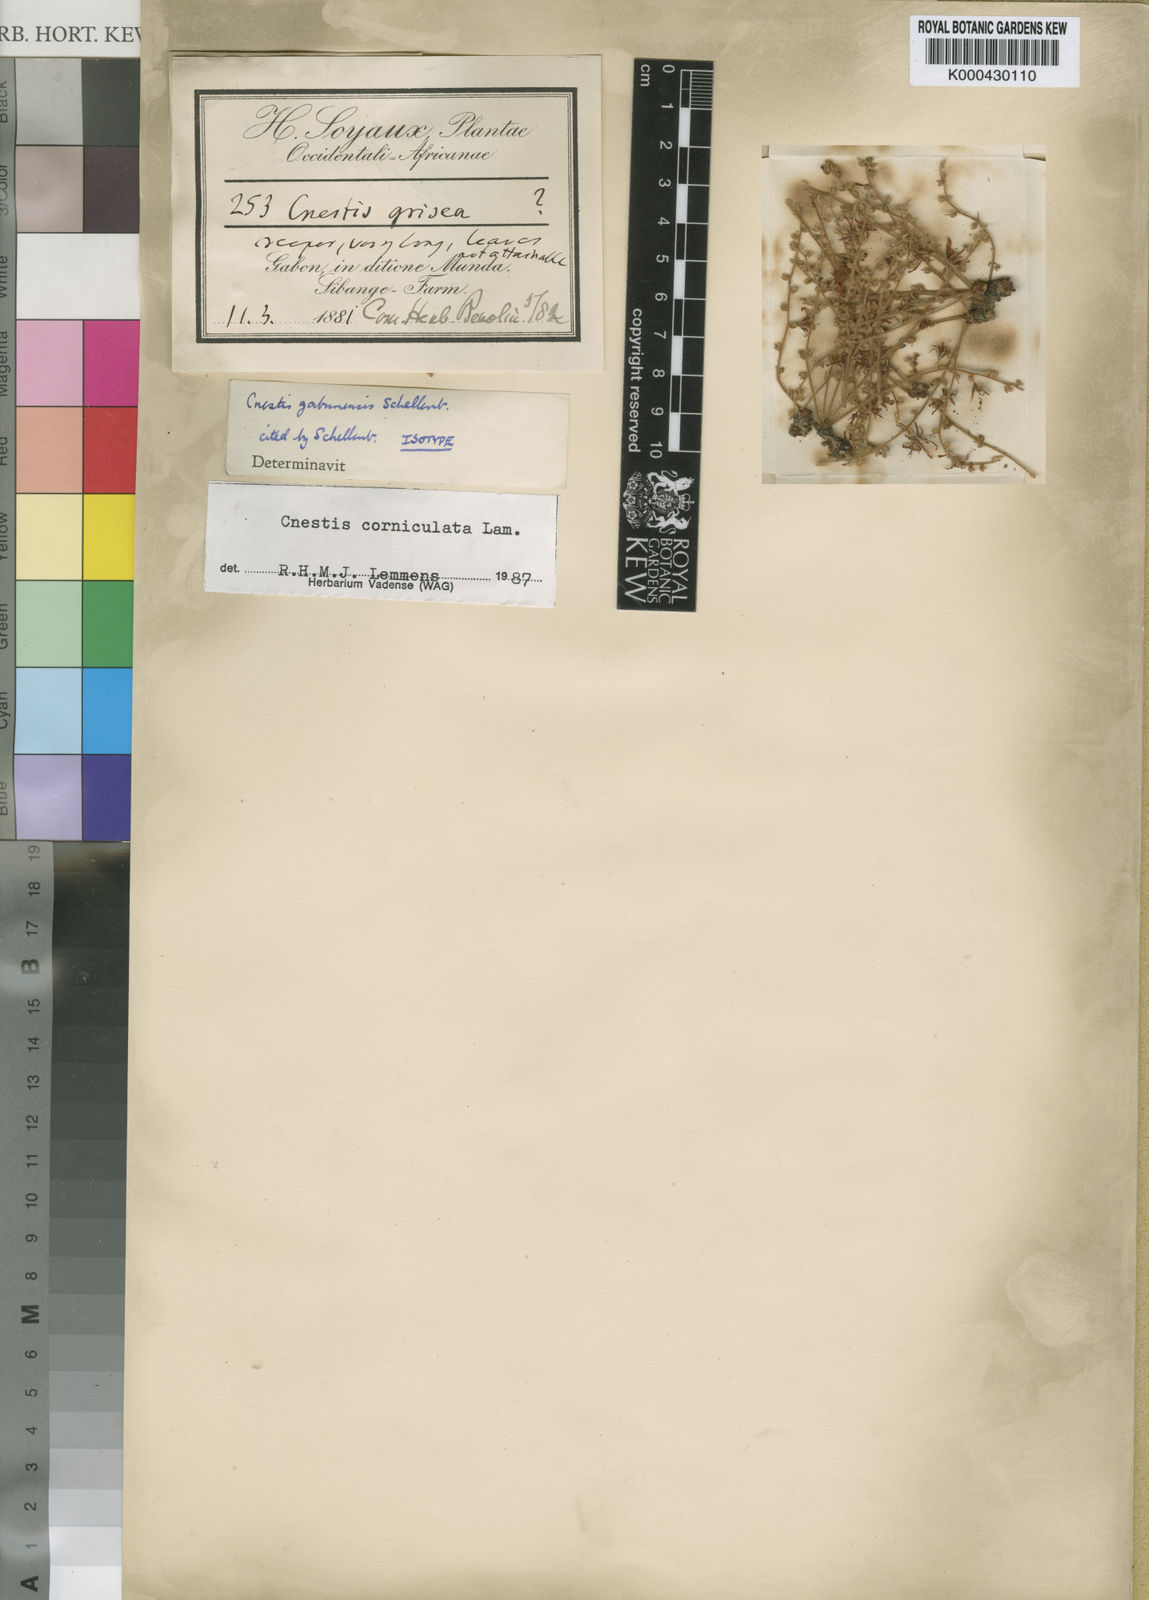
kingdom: Plantae
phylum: Tracheophyta
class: Magnoliopsida
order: Oxalidales
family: Connaraceae
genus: Cnestis
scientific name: Cnestis corniculata
